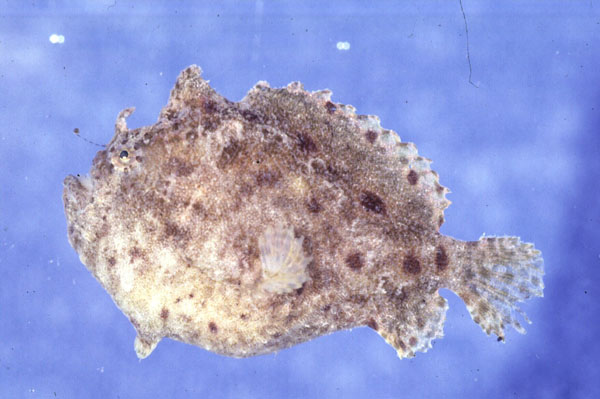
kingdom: Animalia
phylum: Chordata
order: Lophiiformes
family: Antennariidae
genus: Antennatus
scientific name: Antennatus coccineus
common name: Scarlet frogfish
